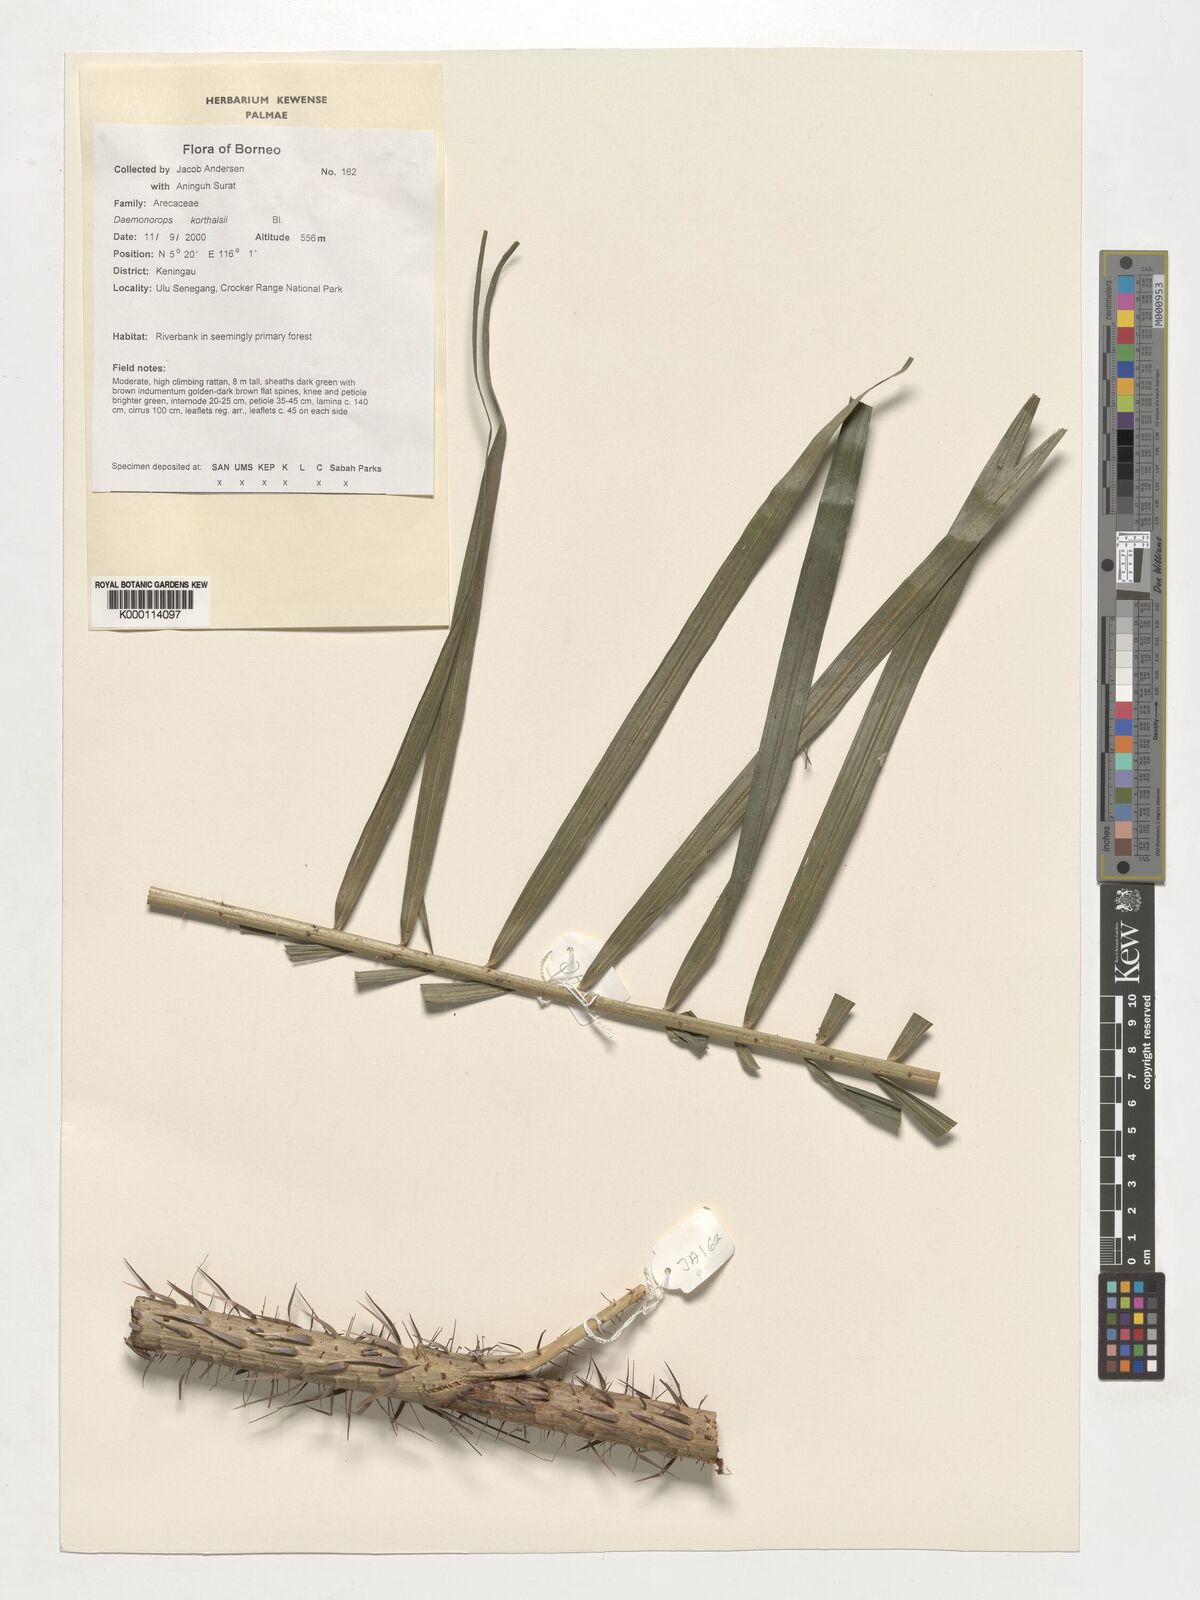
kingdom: Plantae
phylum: Tracheophyta
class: Liliopsida
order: Arecales
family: Arecaceae
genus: Calamus
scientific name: Calamus hirsutus
